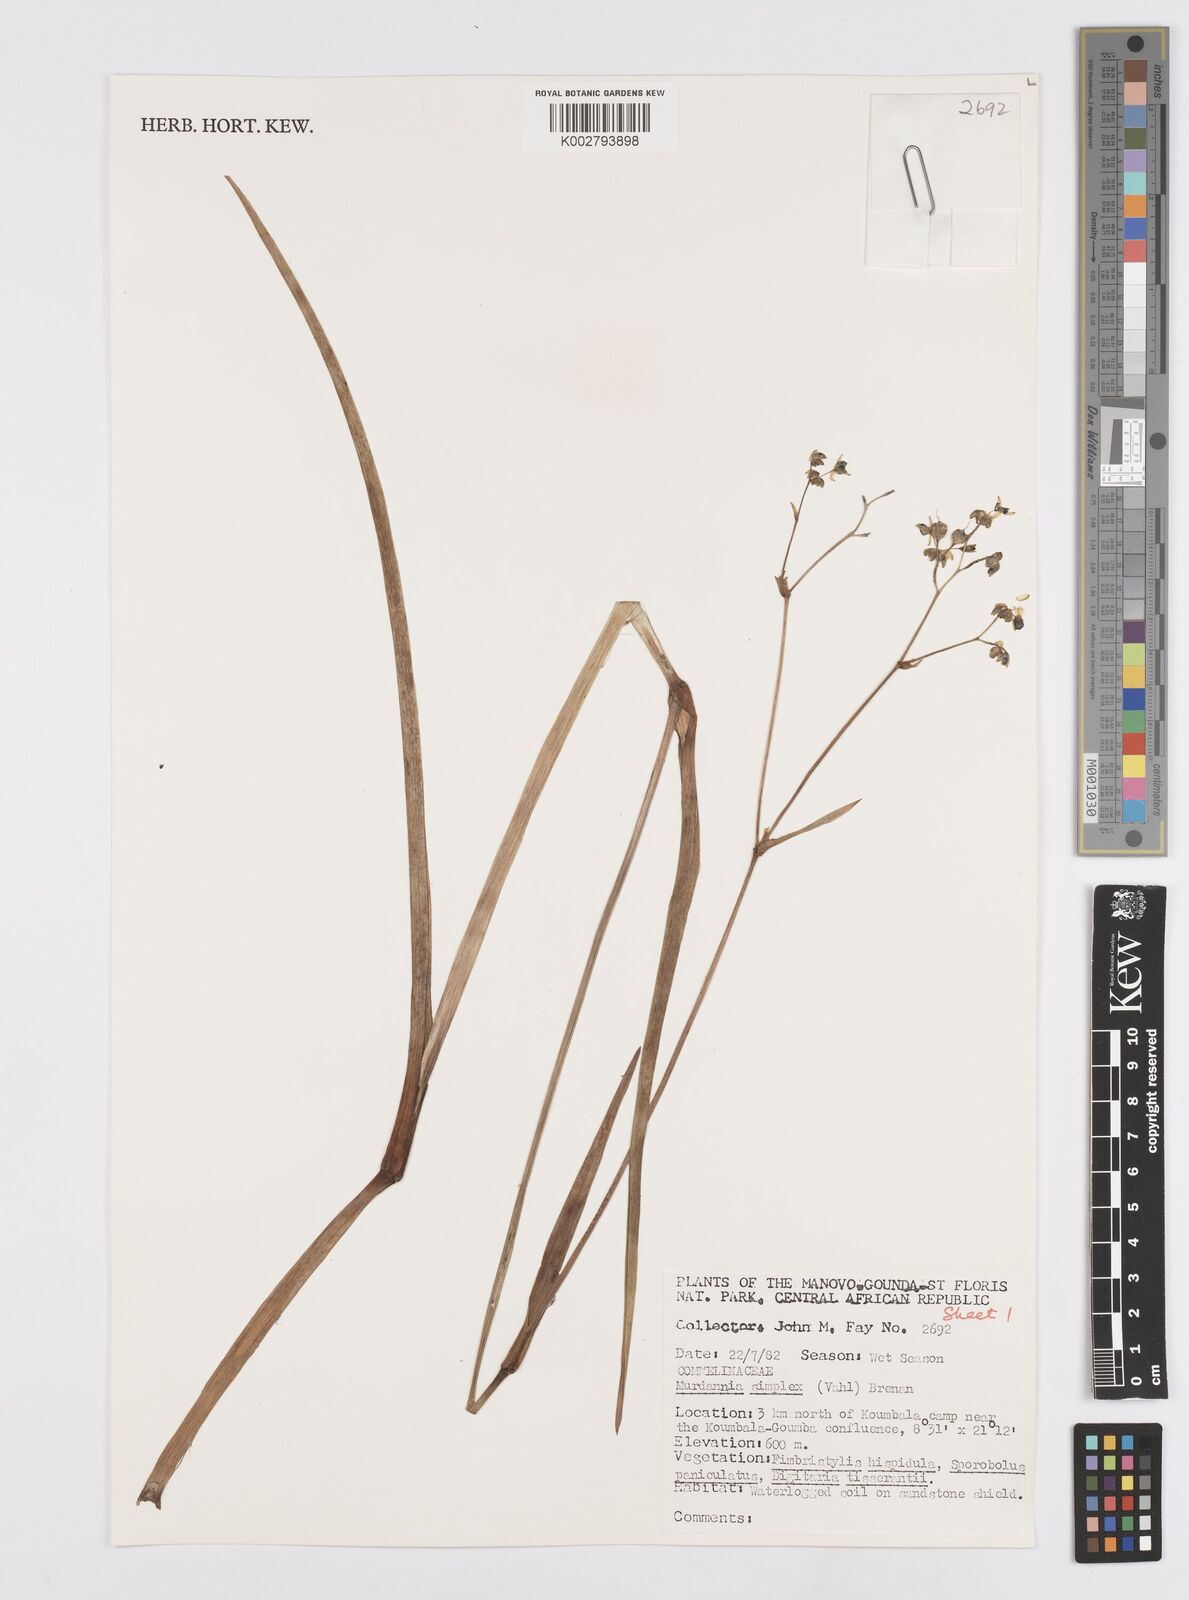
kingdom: Plantae
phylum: Tracheophyta
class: Liliopsida
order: Commelinales
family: Commelinaceae
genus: Murdannia
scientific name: Murdannia simplex
